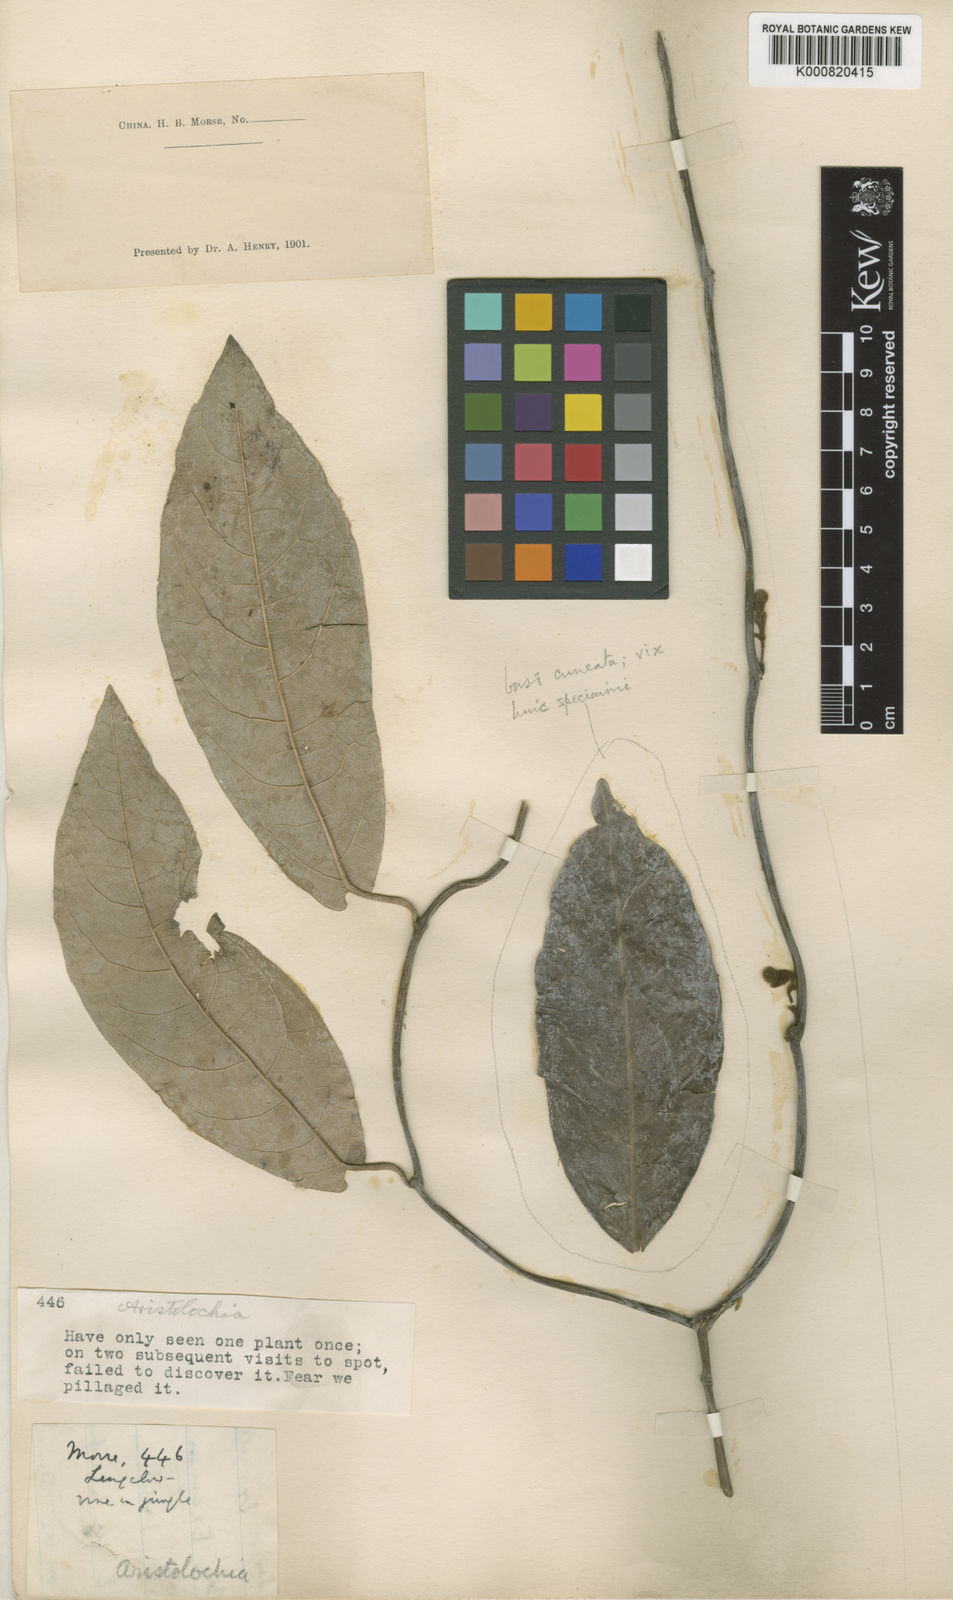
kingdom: Plantae
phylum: Tracheophyta
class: Magnoliopsida
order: Piperales
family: Aristolochiaceae
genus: Isotrema
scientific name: Isotrema westlandii
